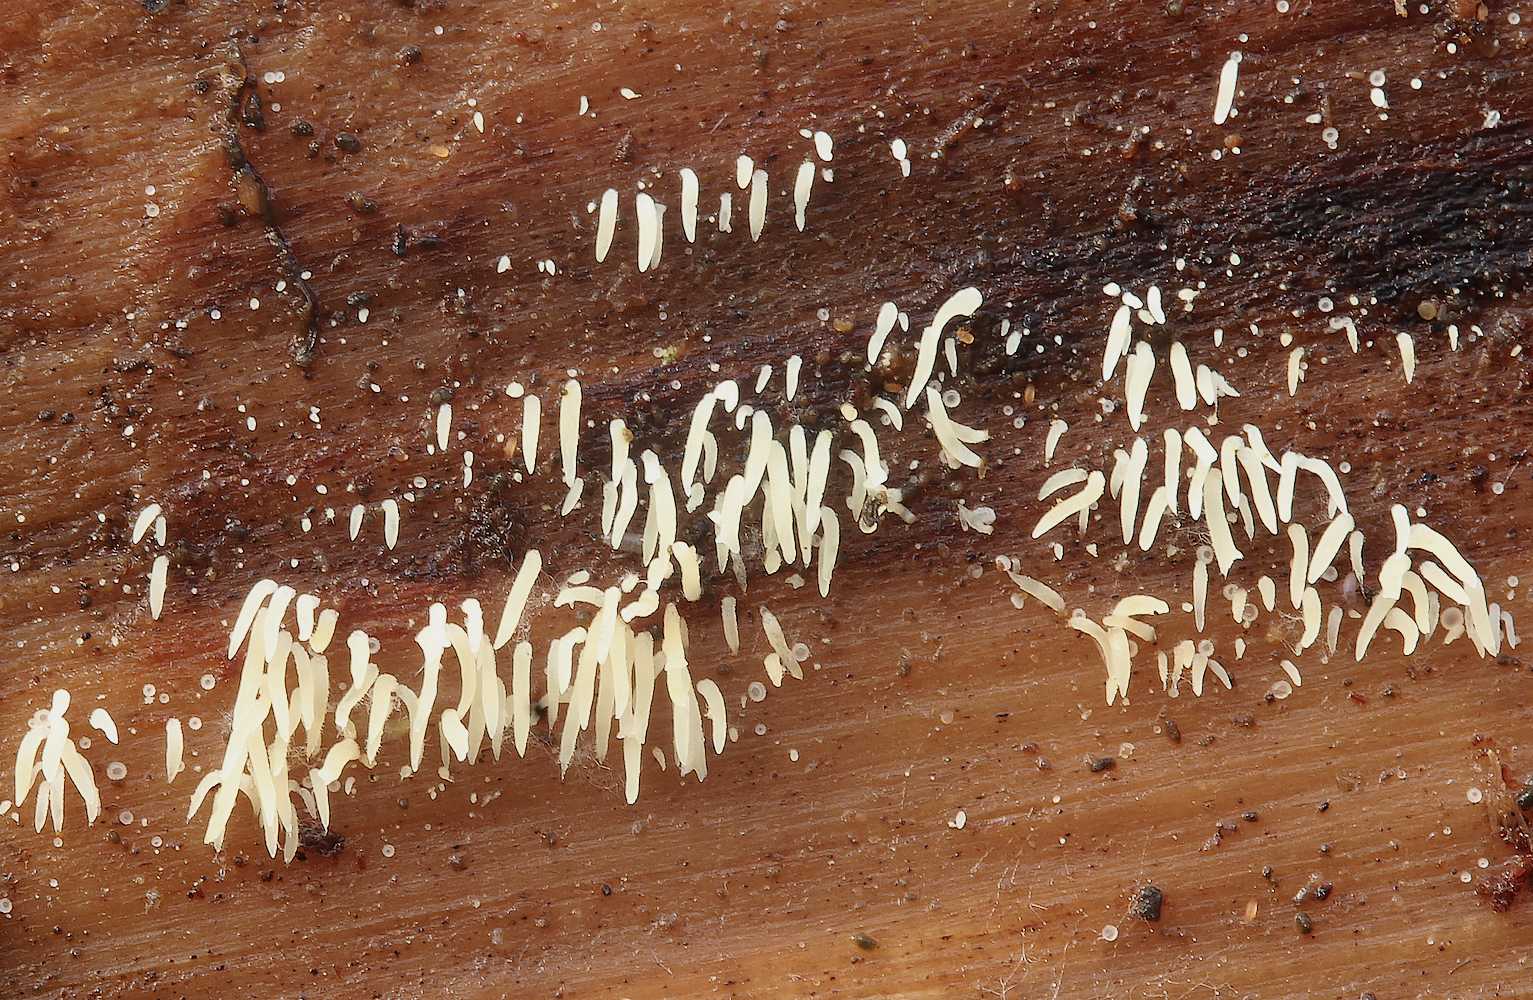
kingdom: Fungi
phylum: Basidiomycota
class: Agaricomycetes
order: Agaricales
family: Clavariaceae
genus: Mucronella
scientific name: Mucronella calva
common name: hvid hængepig
